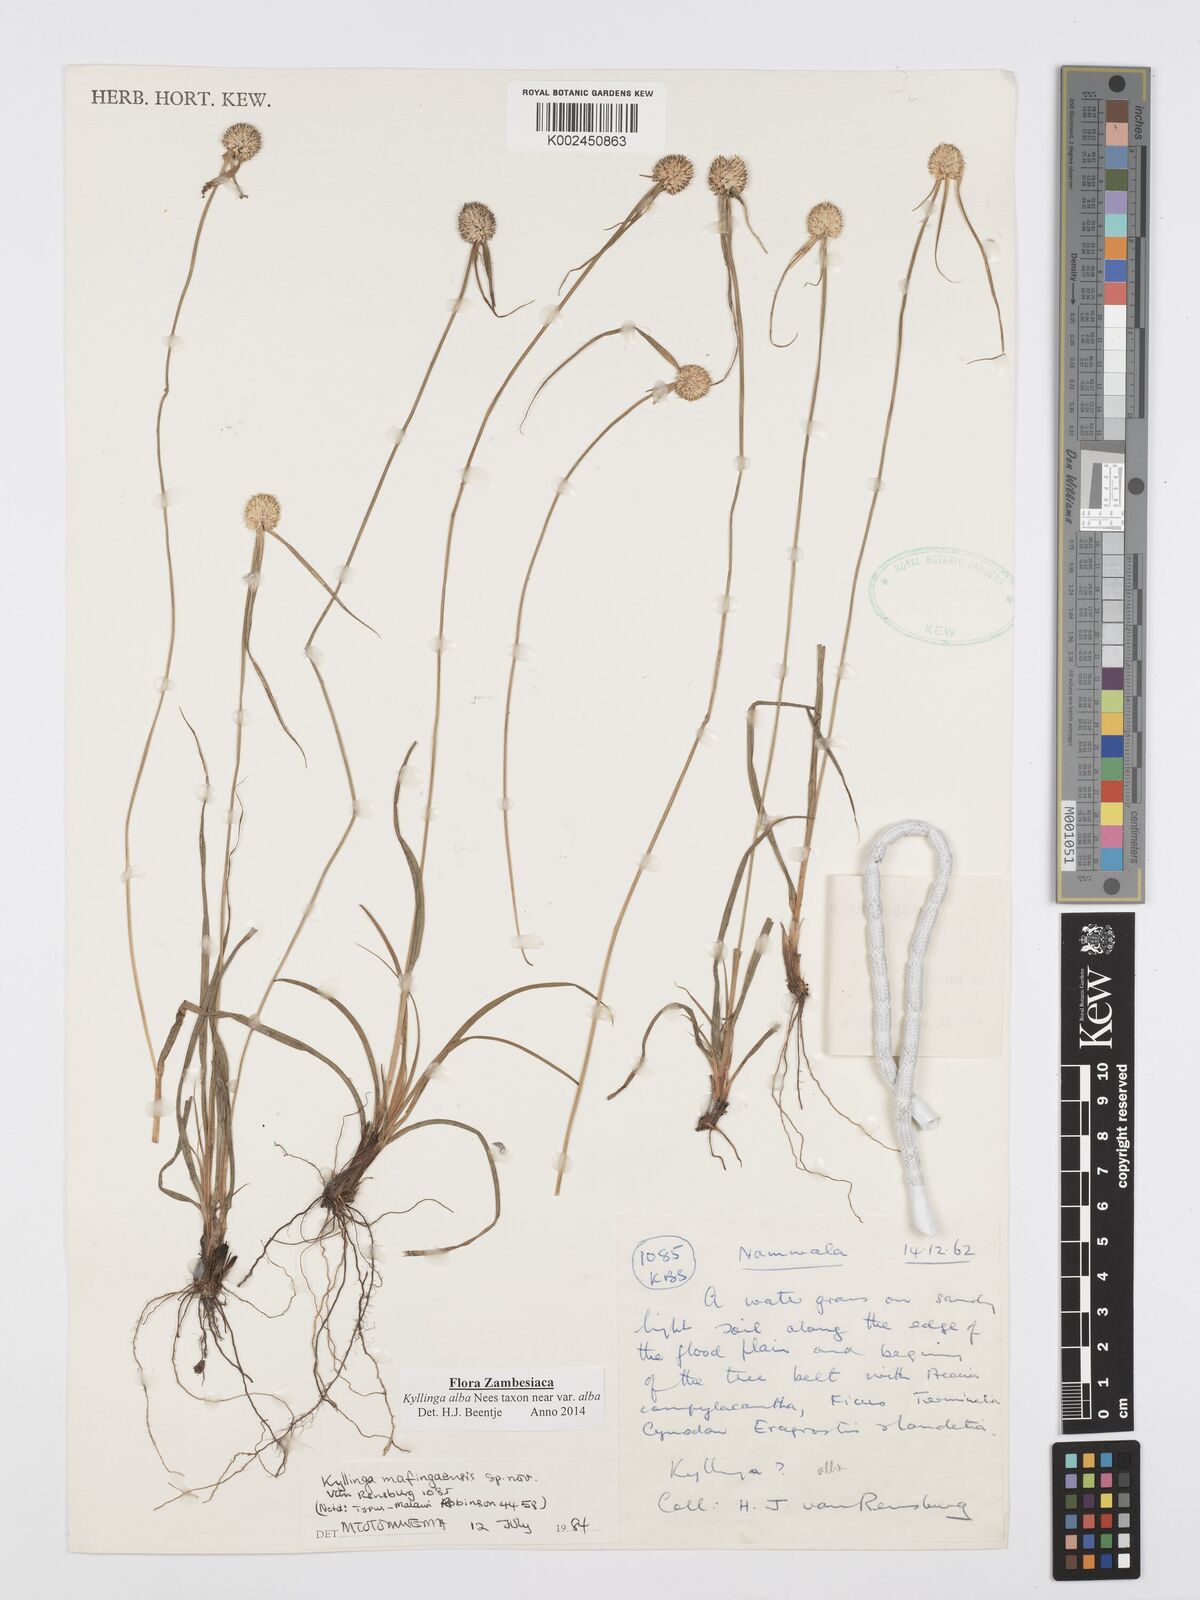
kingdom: Plantae
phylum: Tracheophyta
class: Liliopsida
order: Poales
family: Cyperaceae
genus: Cyperus
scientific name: Cyperus
